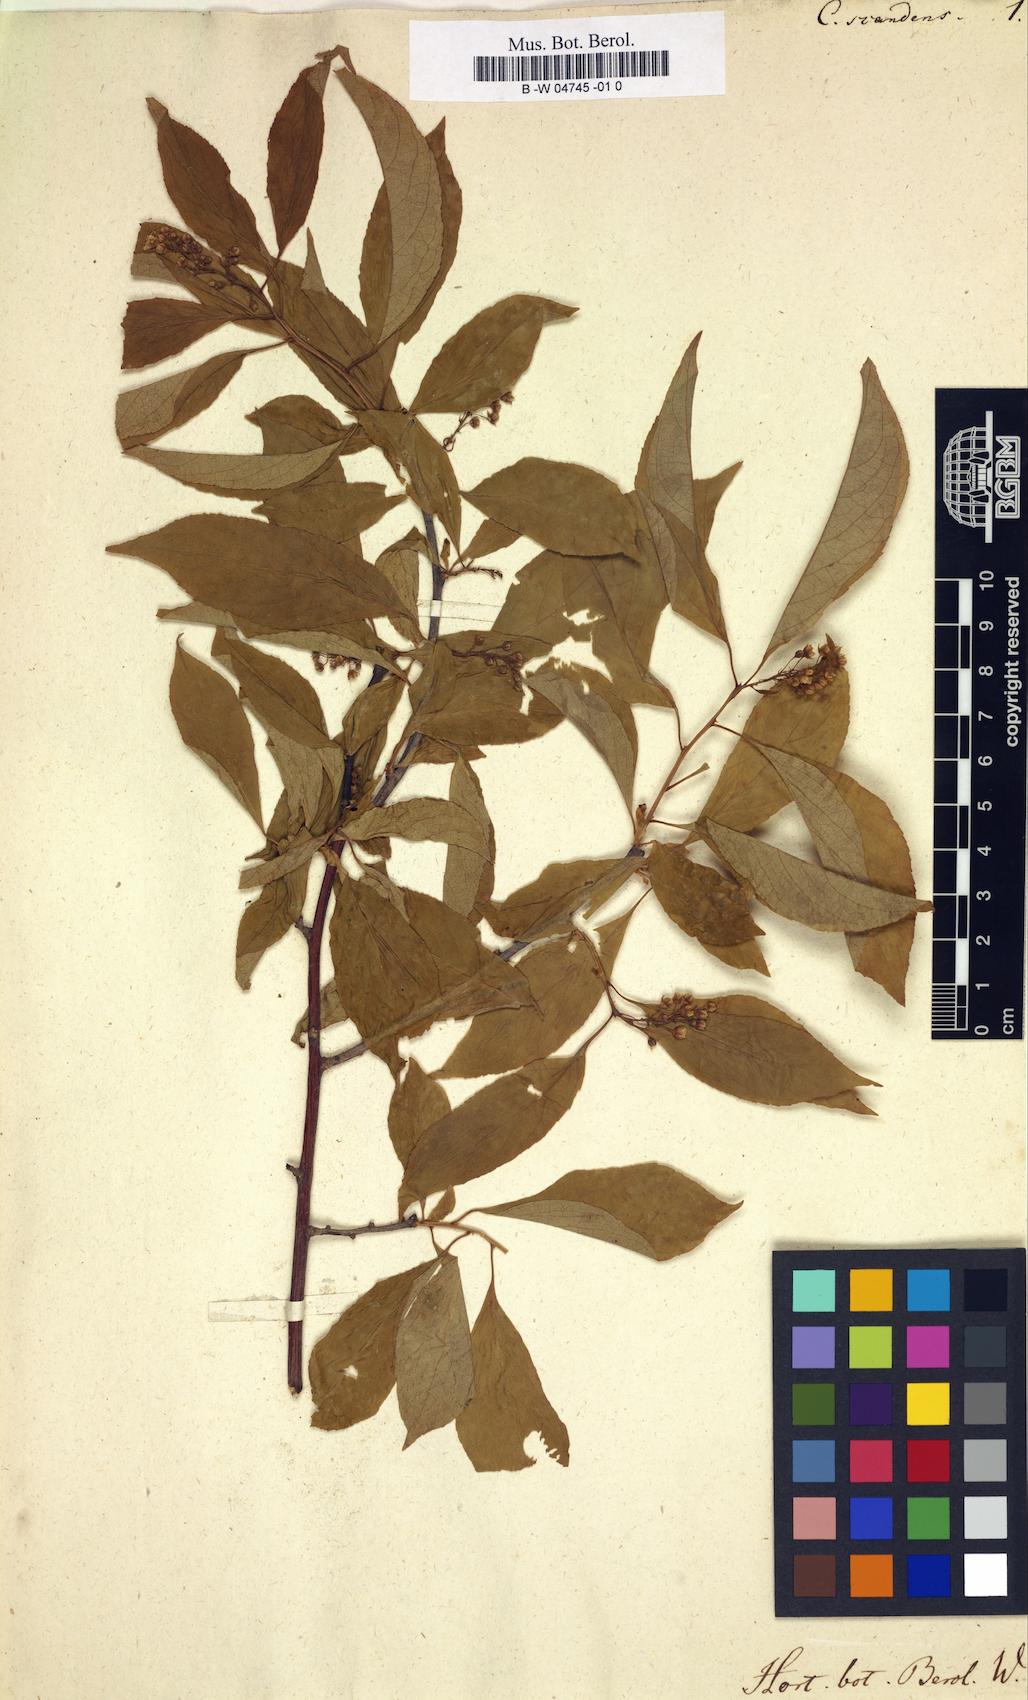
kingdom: Plantae
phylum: Tracheophyta
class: Magnoliopsida
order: Celastrales
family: Celastraceae
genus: Celastrus
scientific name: Celastrus scandens
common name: American bittersweet
